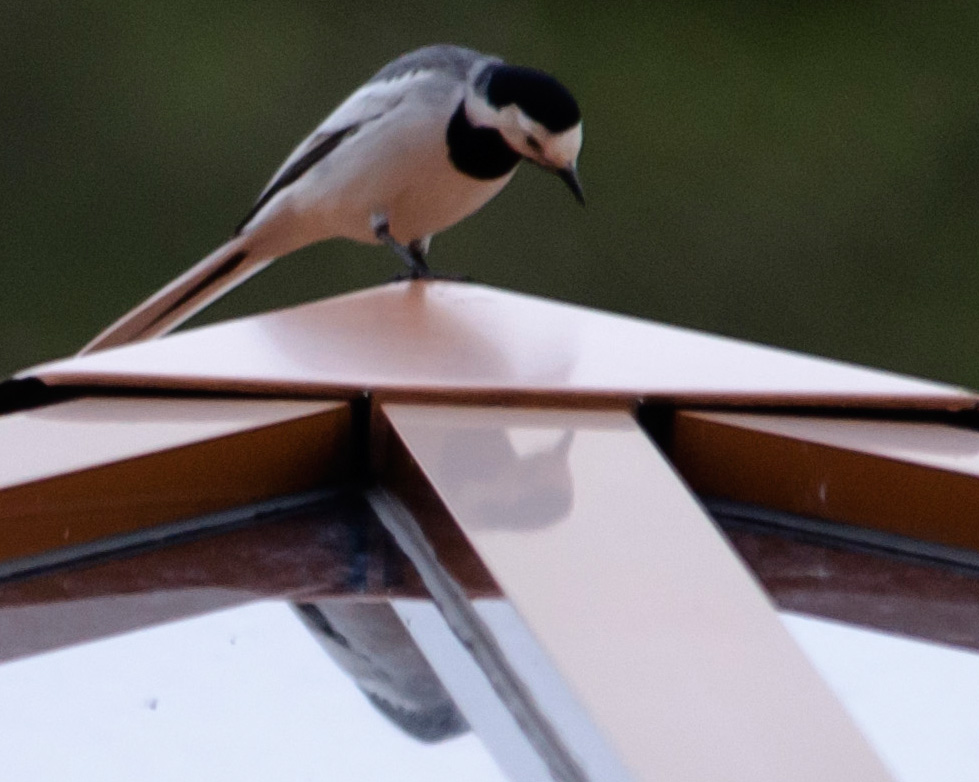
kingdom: Animalia
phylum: Chordata
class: Aves
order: Passeriformes
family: Motacillidae
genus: Motacilla
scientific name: Motacilla alba
